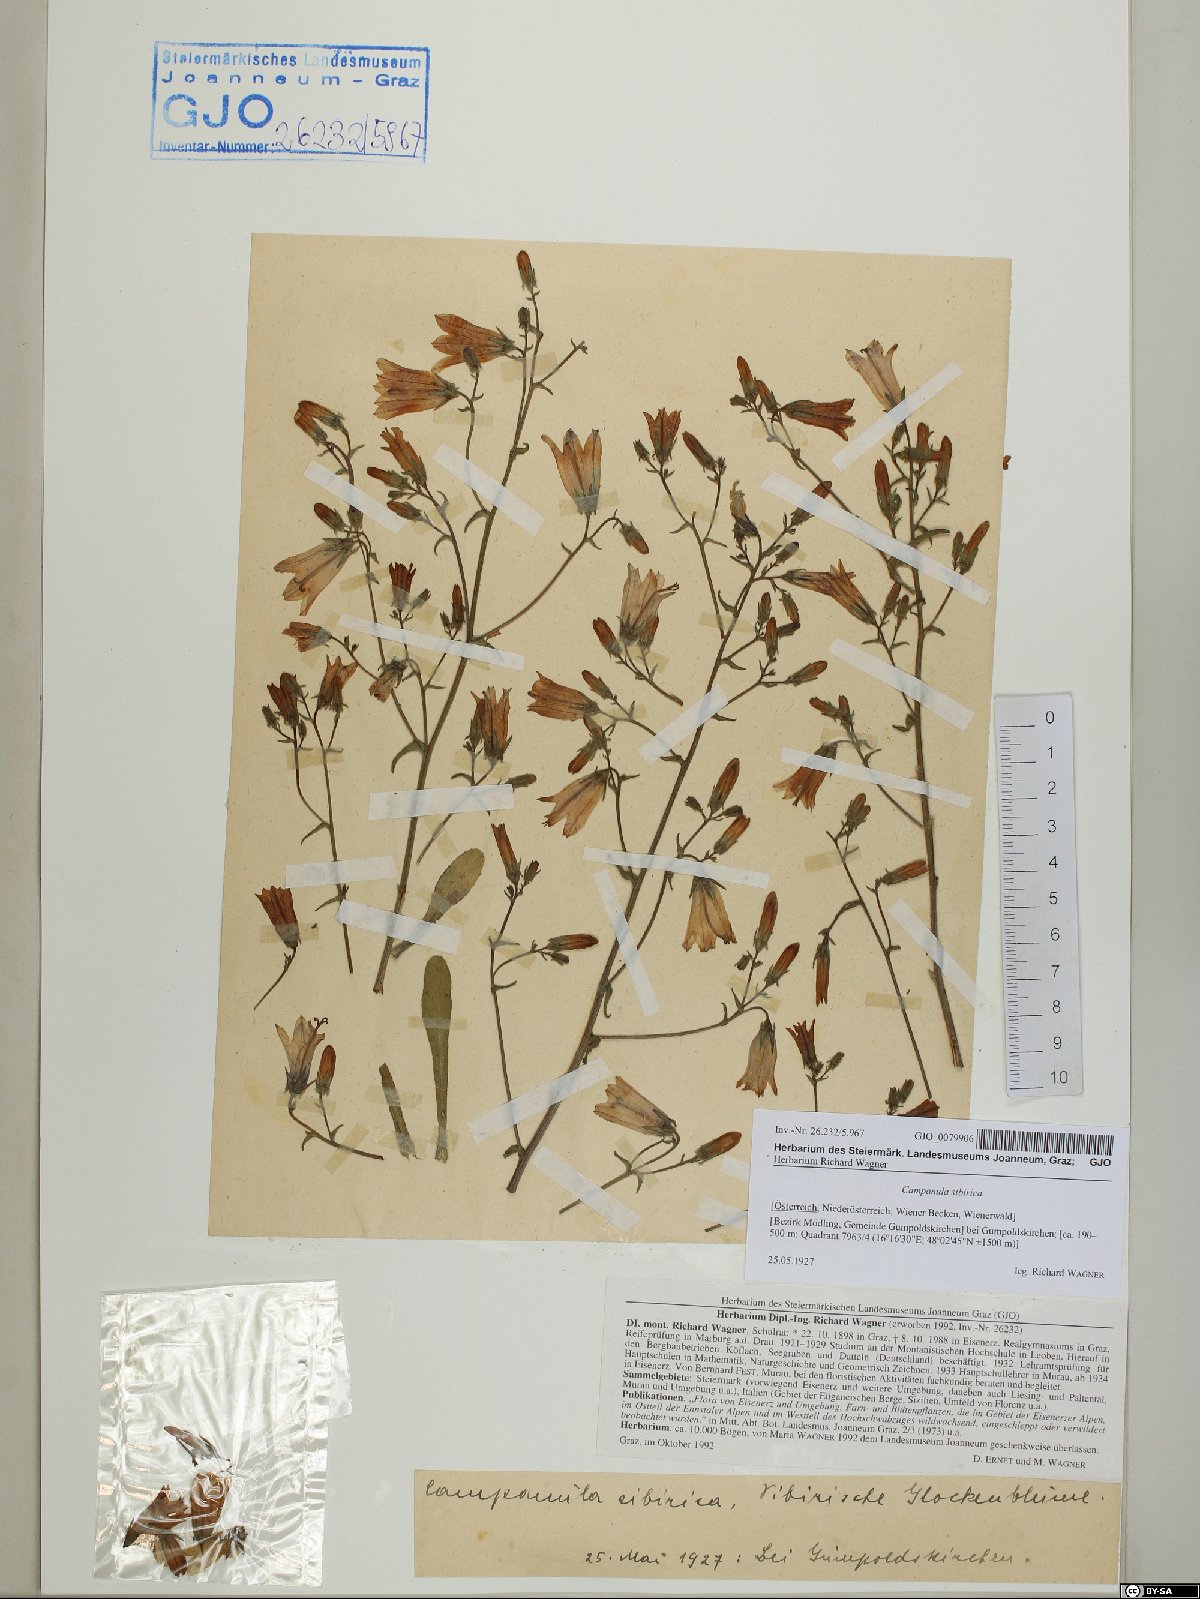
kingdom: Plantae
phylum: Tracheophyta
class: Magnoliopsida
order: Asterales
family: Campanulaceae
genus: Campanula
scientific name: Campanula sibirica
